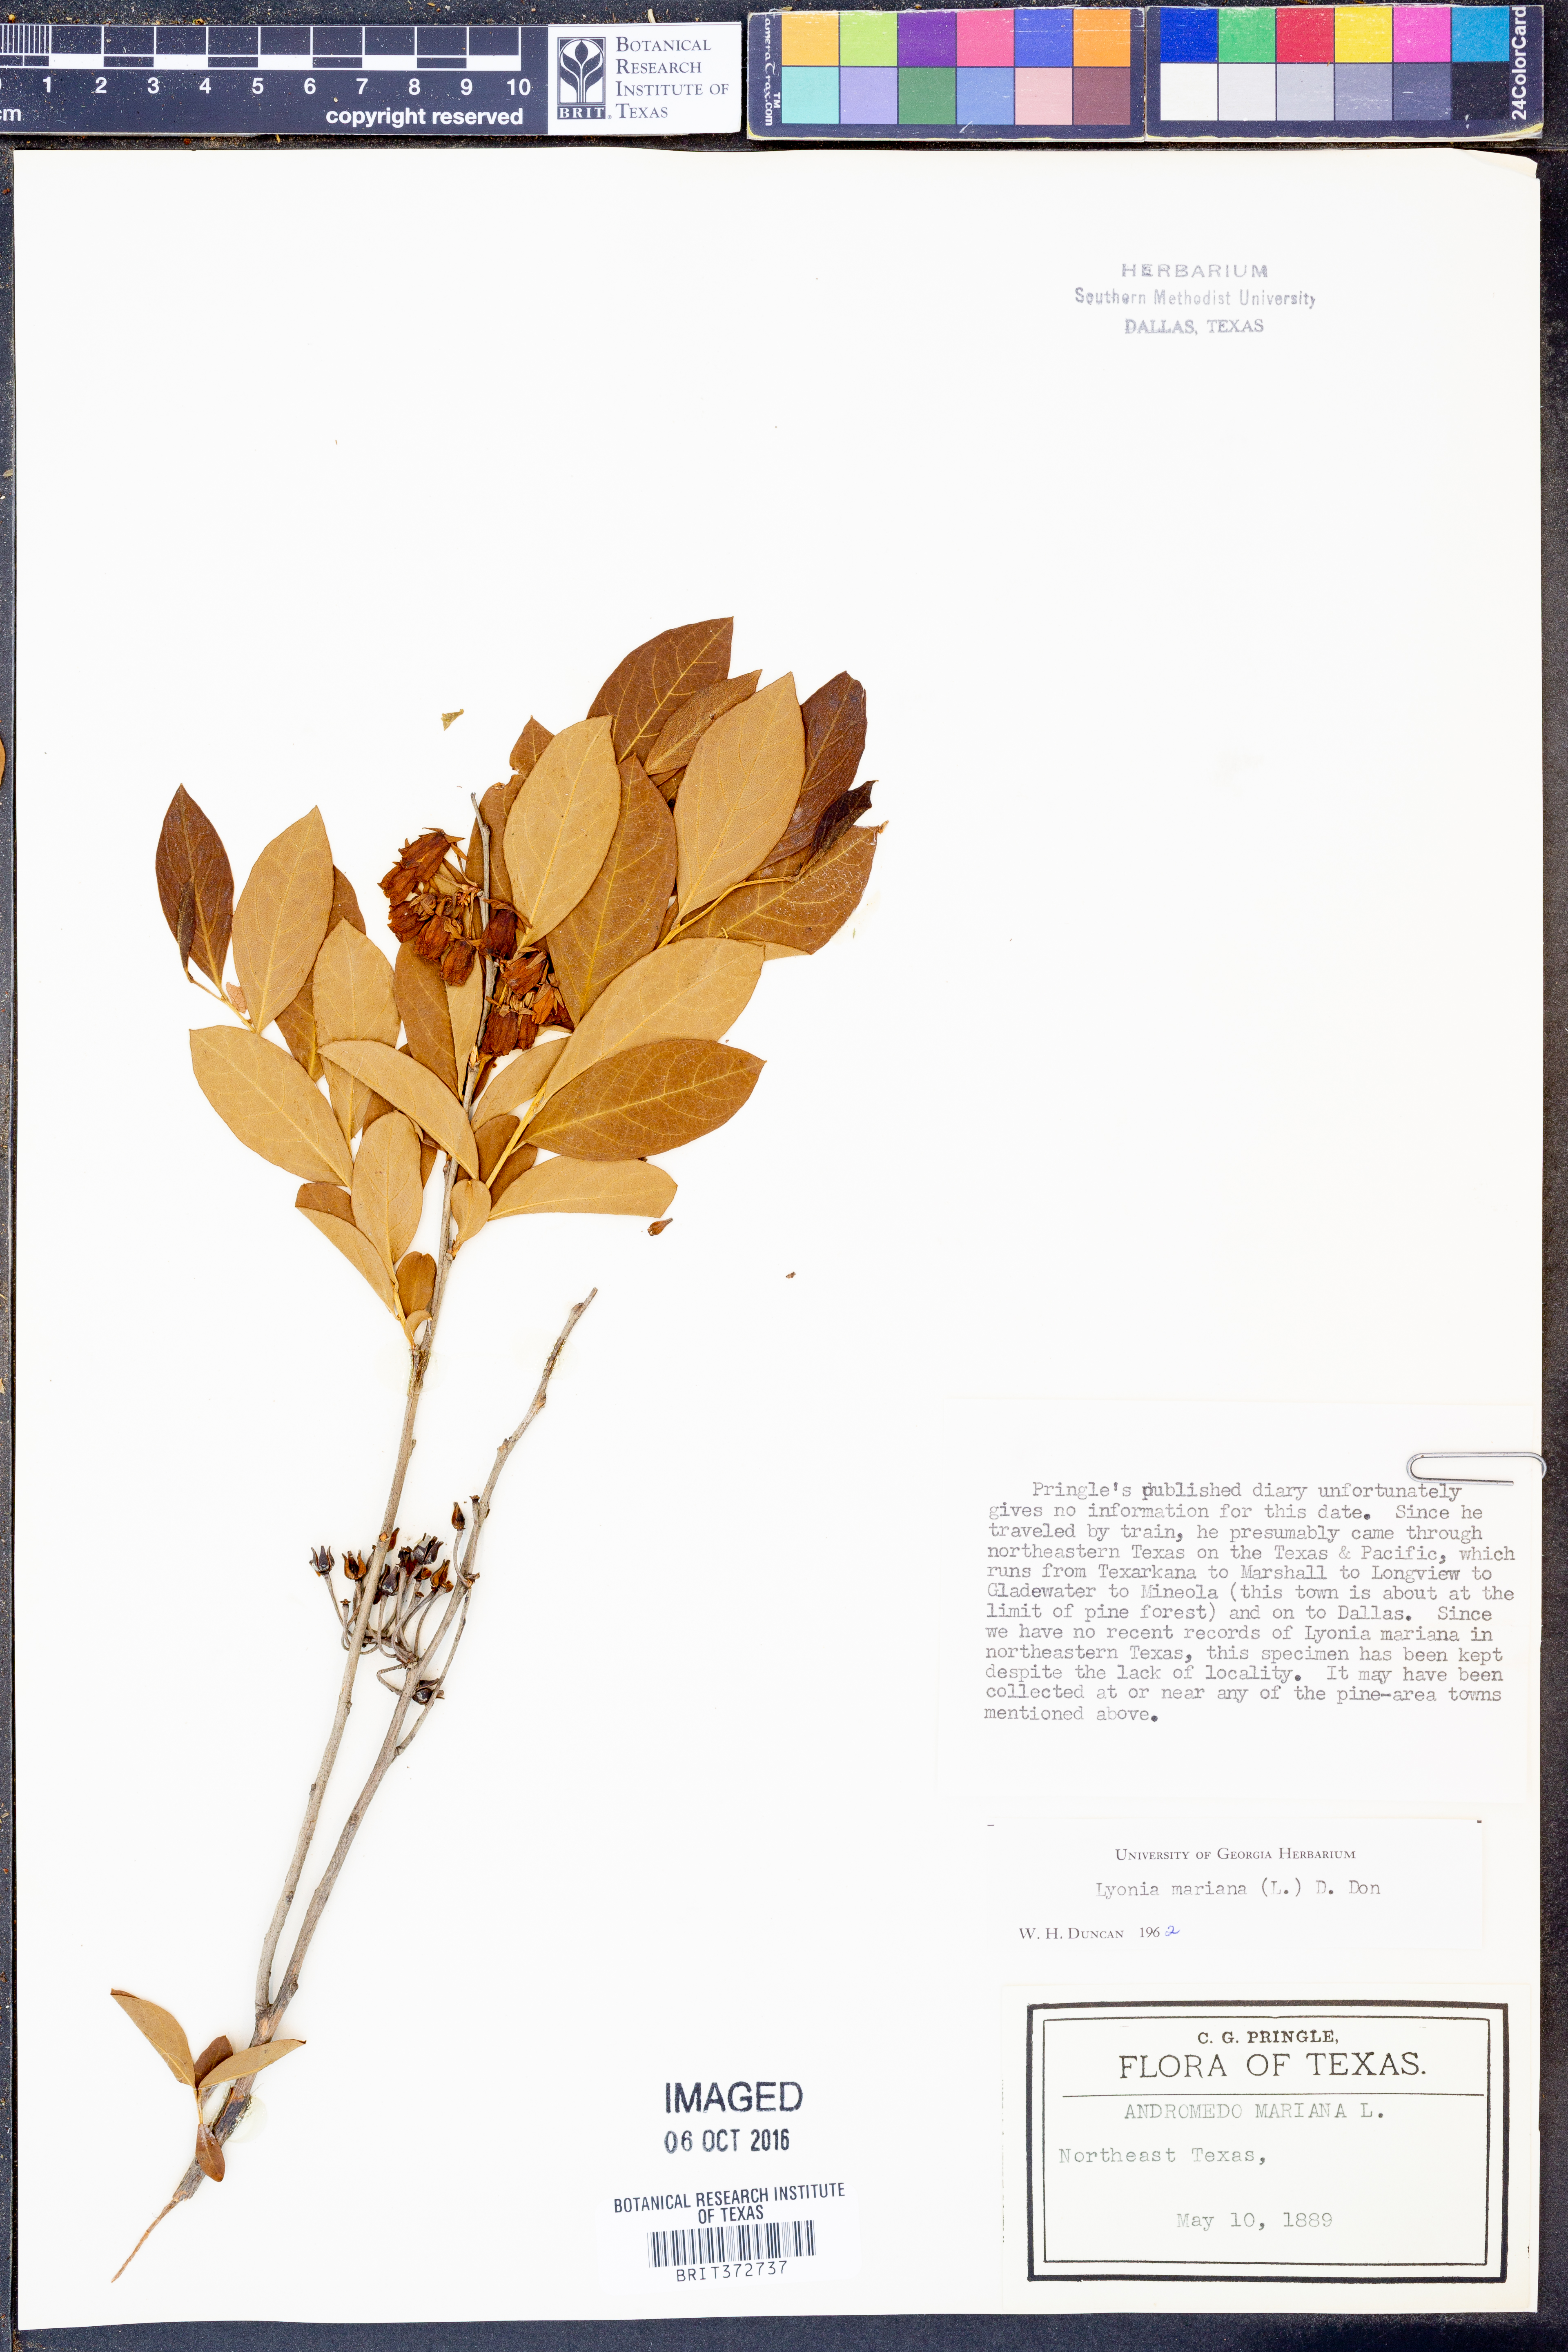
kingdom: Plantae
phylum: Tracheophyta
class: Magnoliopsida
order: Ericales
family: Ericaceae
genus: Lyonia
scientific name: Lyonia mariana
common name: Staggerbush
